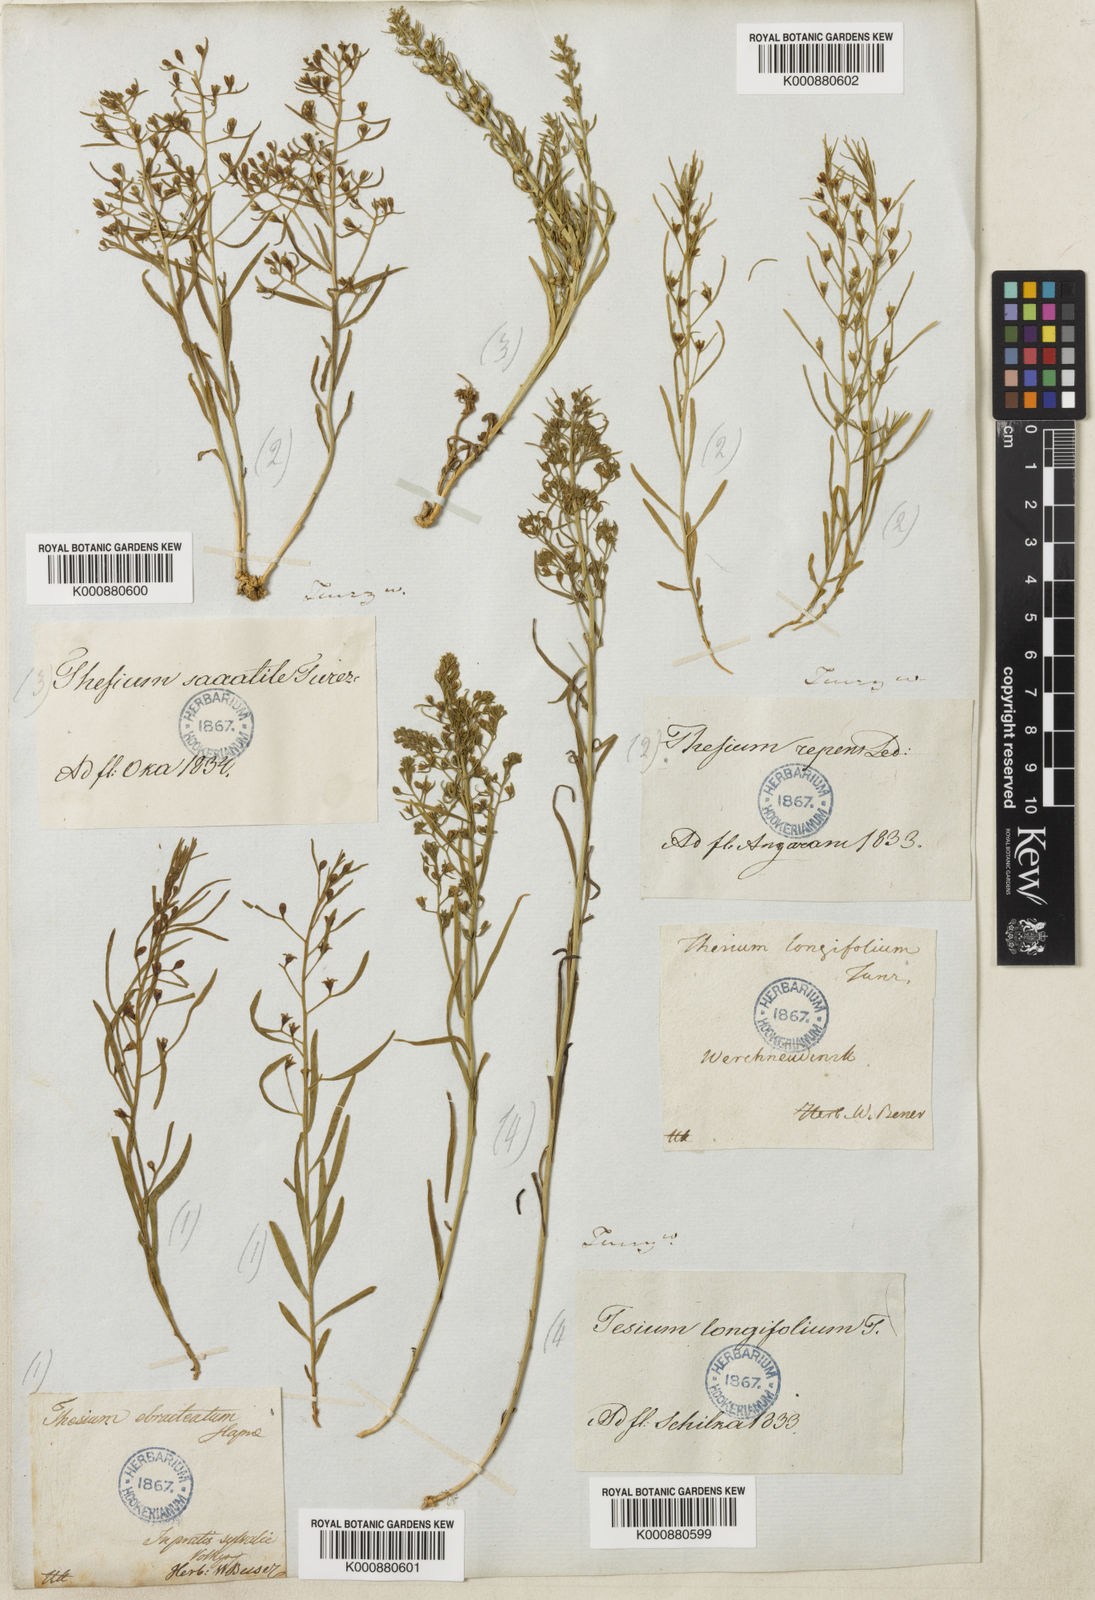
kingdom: Plantae
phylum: Tracheophyta
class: Magnoliopsida
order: Santalales
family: Thesiaceae
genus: Thesium
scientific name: Thesium longifolium
